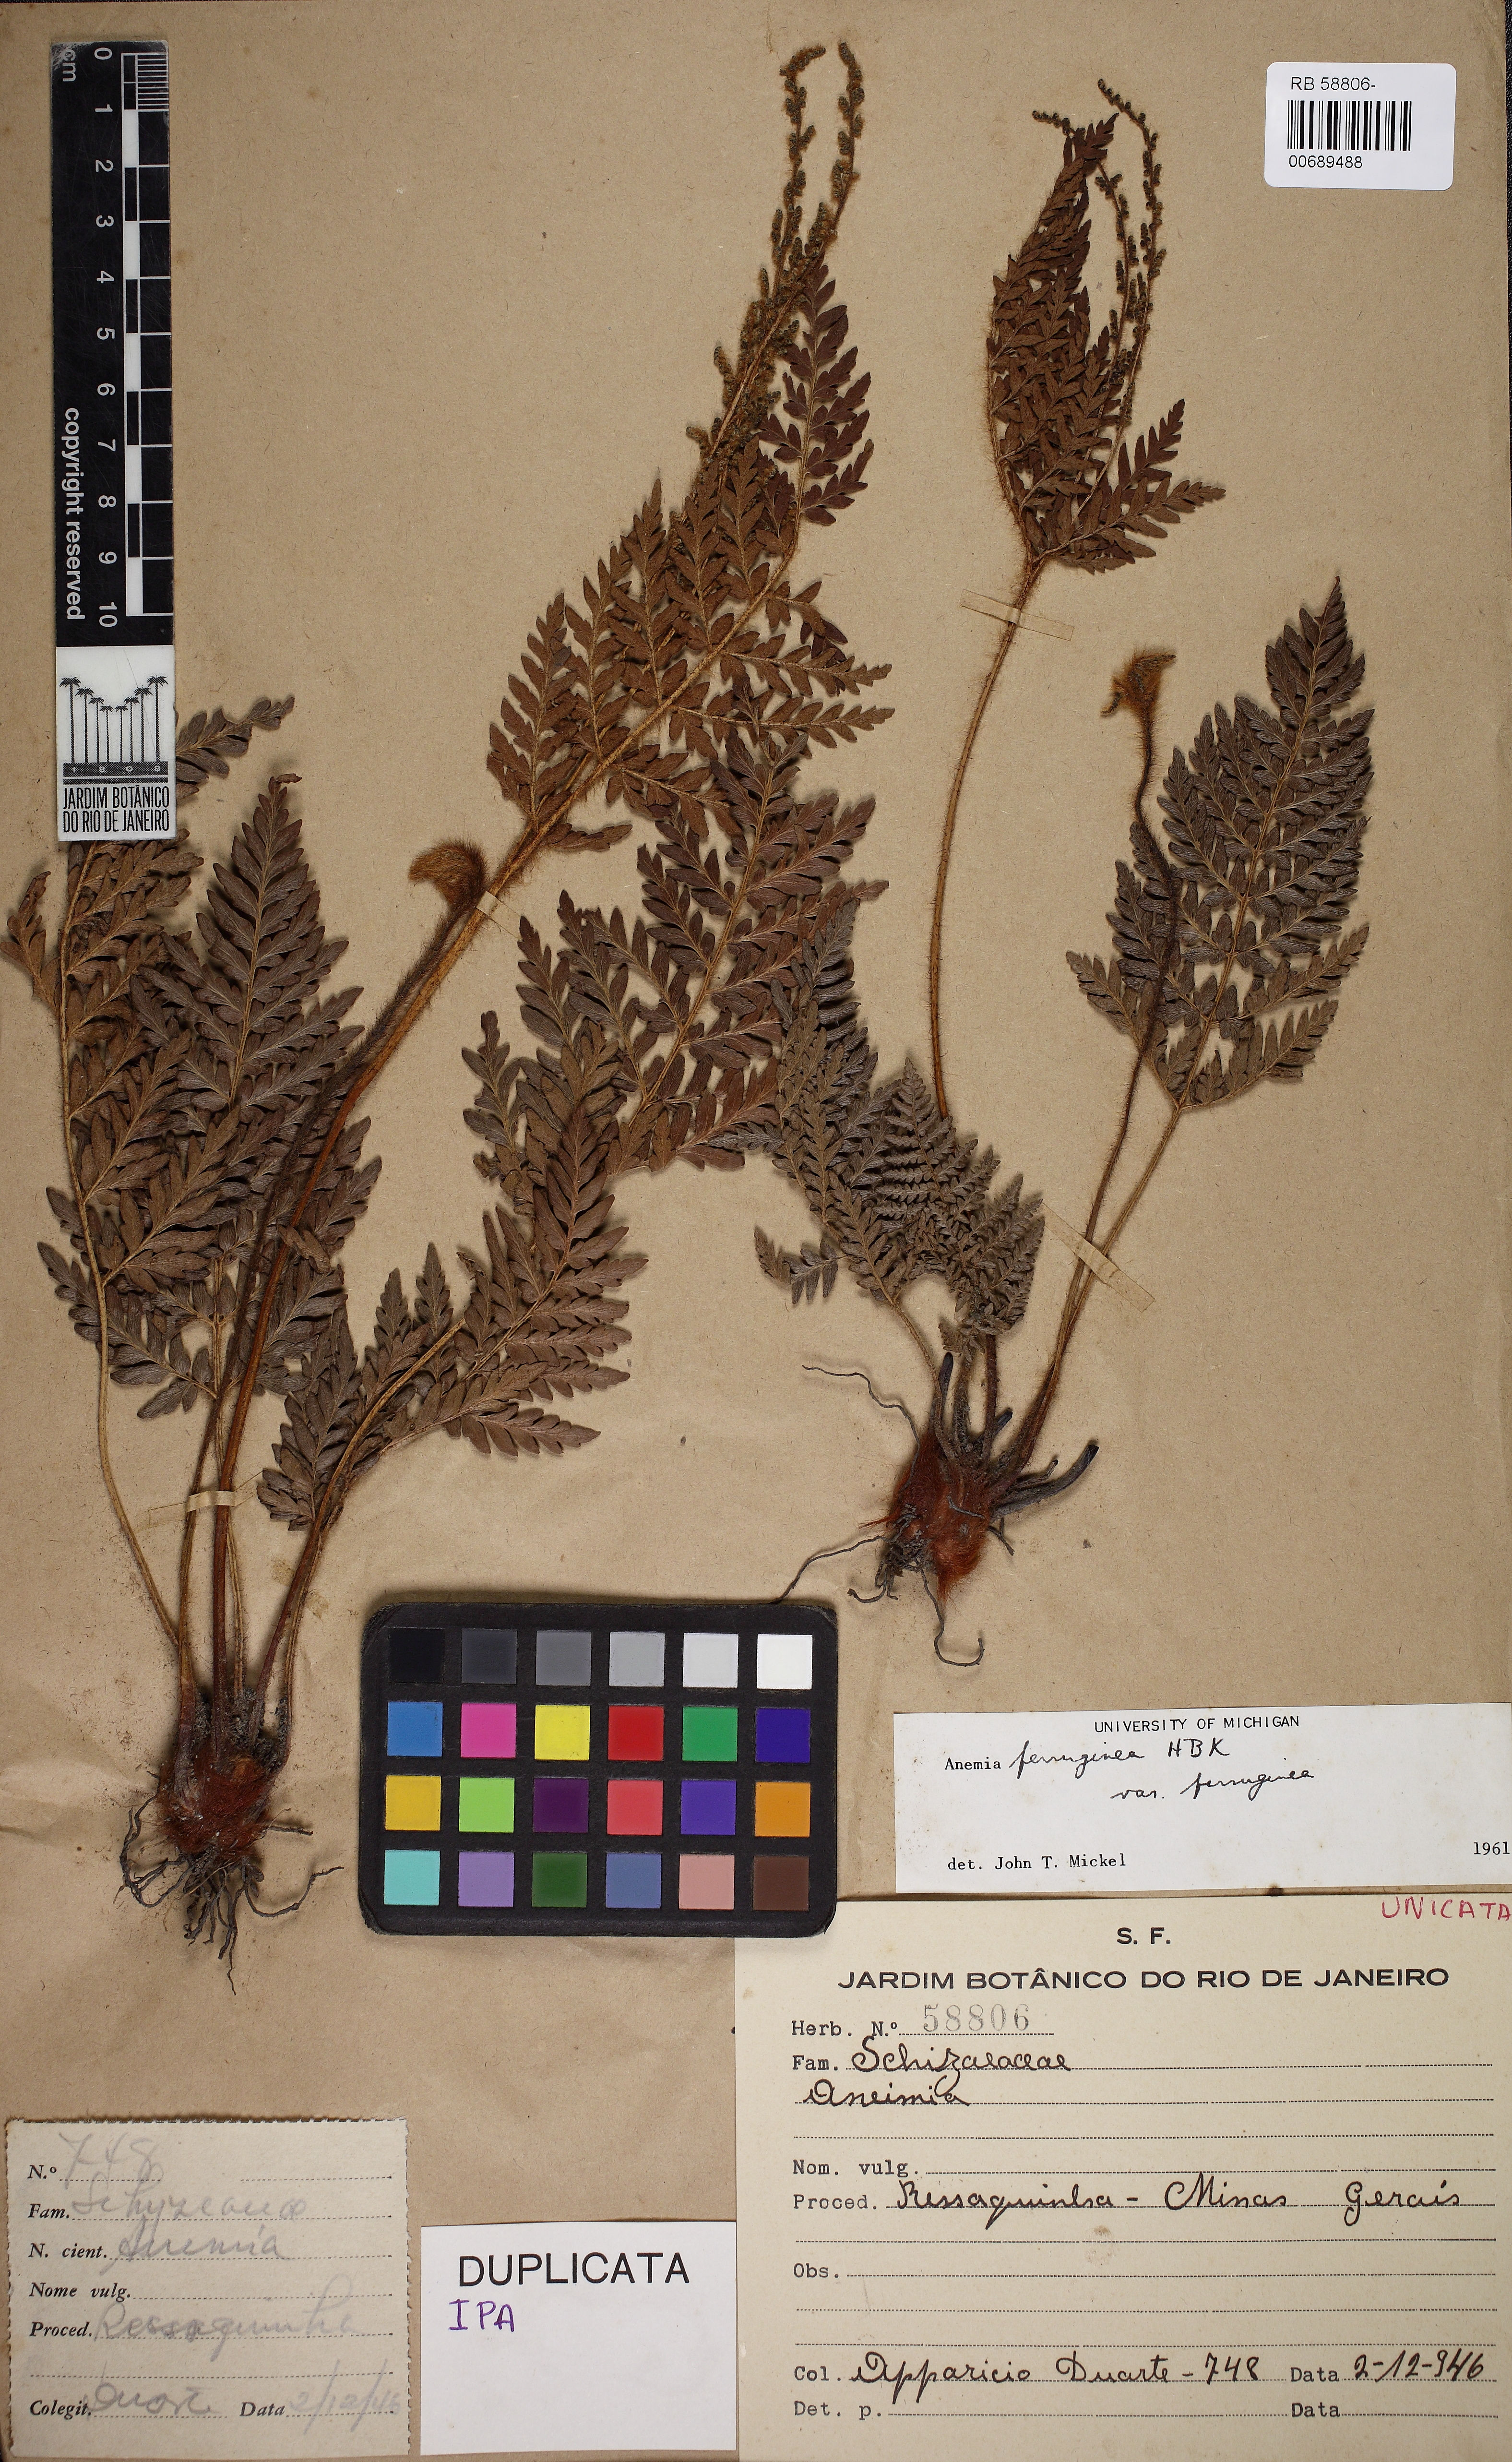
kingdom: Plantae
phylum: Tracheophyta
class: Polypodiopsida
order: Schizaeales
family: Anemiaceae
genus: Anemia
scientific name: Anemia ferruginea
